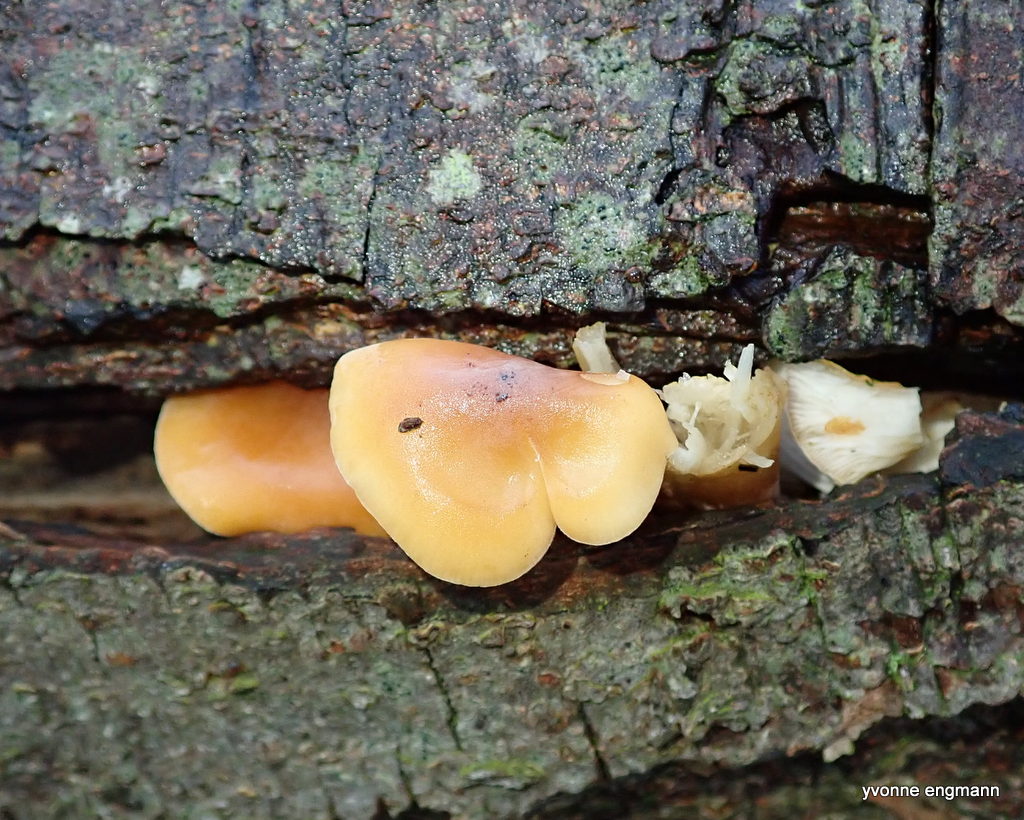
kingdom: Fungi
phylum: Basidiomycota
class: Agaricomycetes
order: Agaricales
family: Physalacriaceae
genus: Flammulina
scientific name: Flammulina
